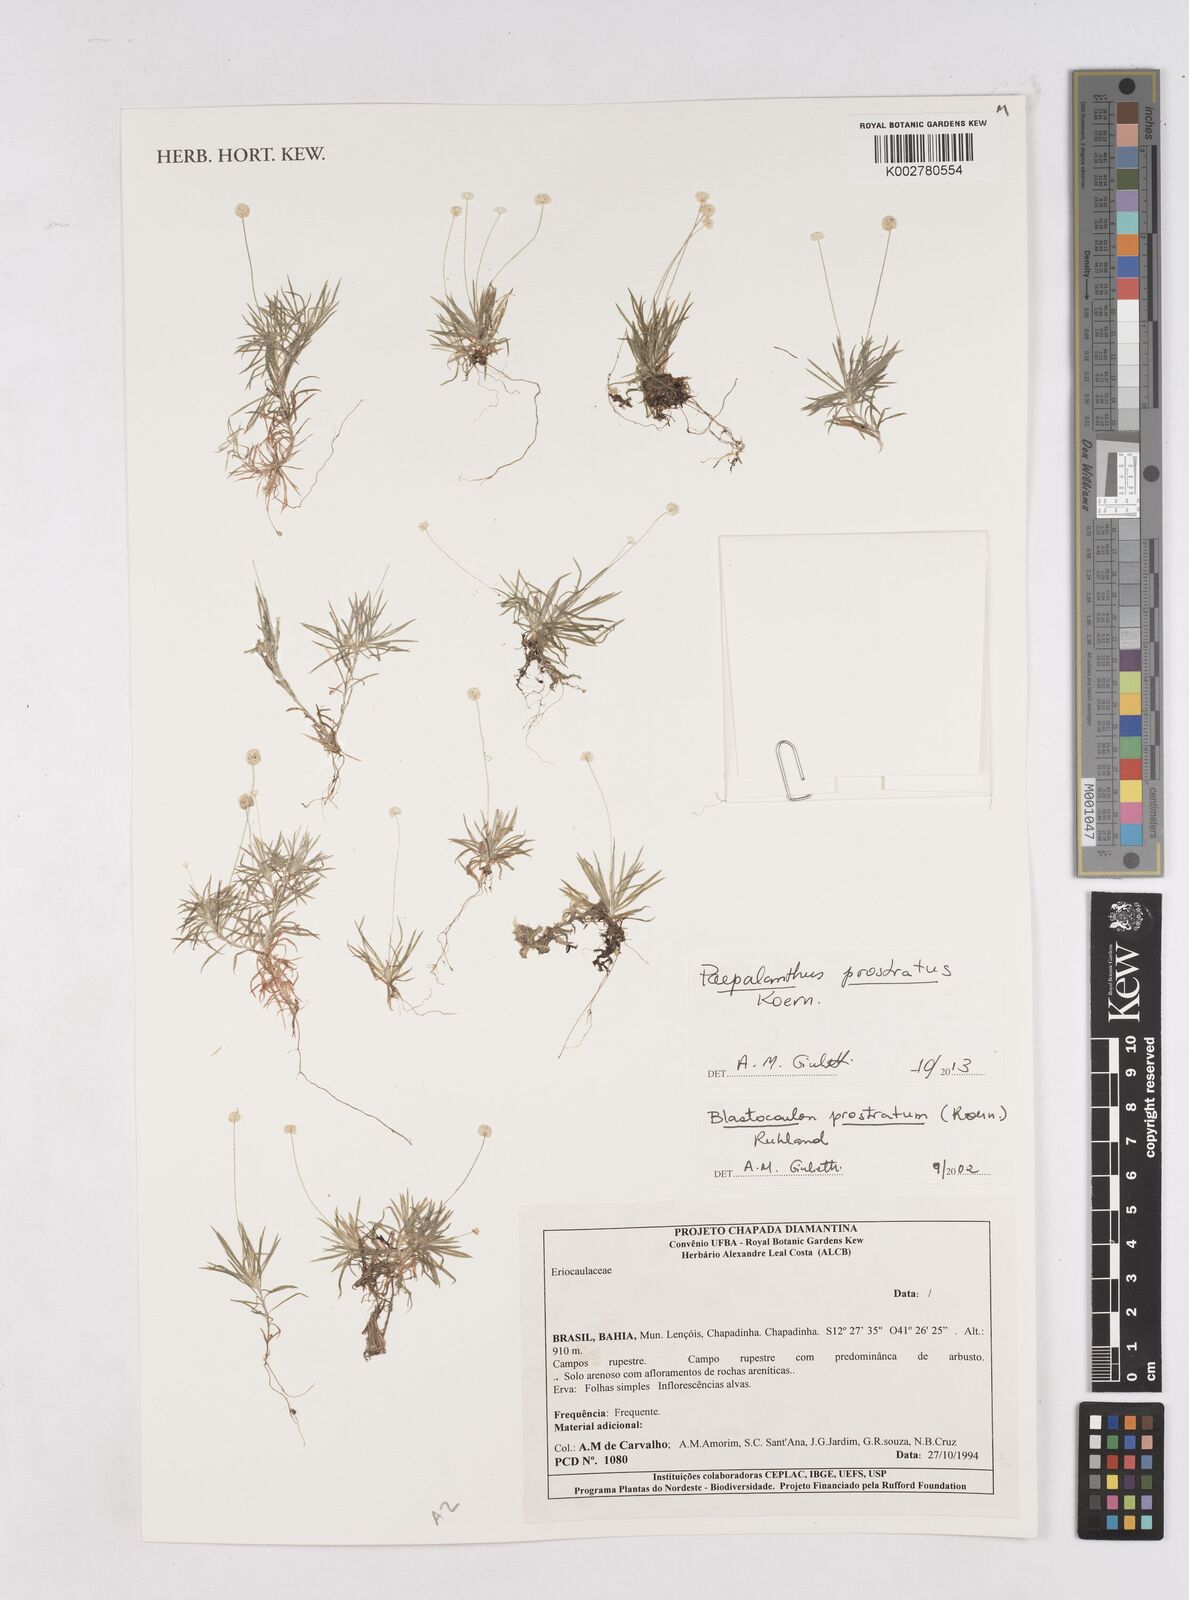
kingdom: Plantae
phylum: Tracheophyta
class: Liliopsida
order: Poales
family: Eriocaulaceae
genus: Paepalanthus
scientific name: Paepalanthus prostratus
